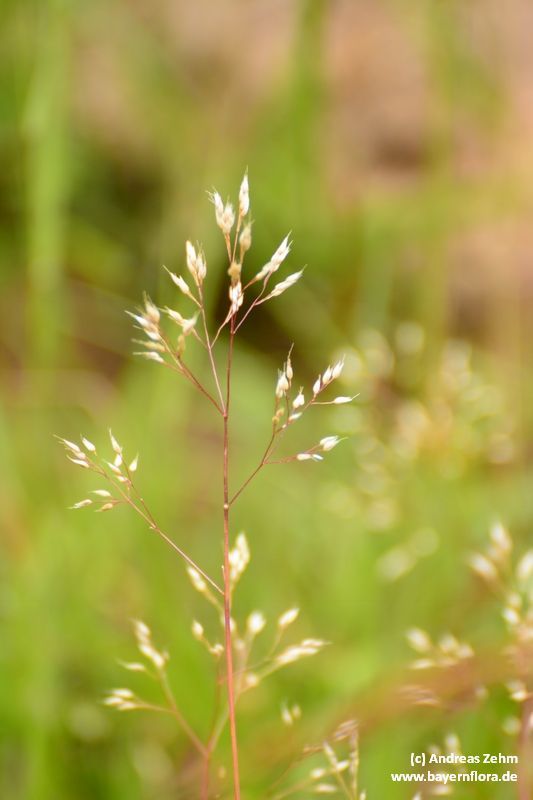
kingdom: Plantae
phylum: Tracheophyta
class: Liliopsida
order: Poales
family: Poaceae
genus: Aira
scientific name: Aira caryophyllea
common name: Silver hairgrass
